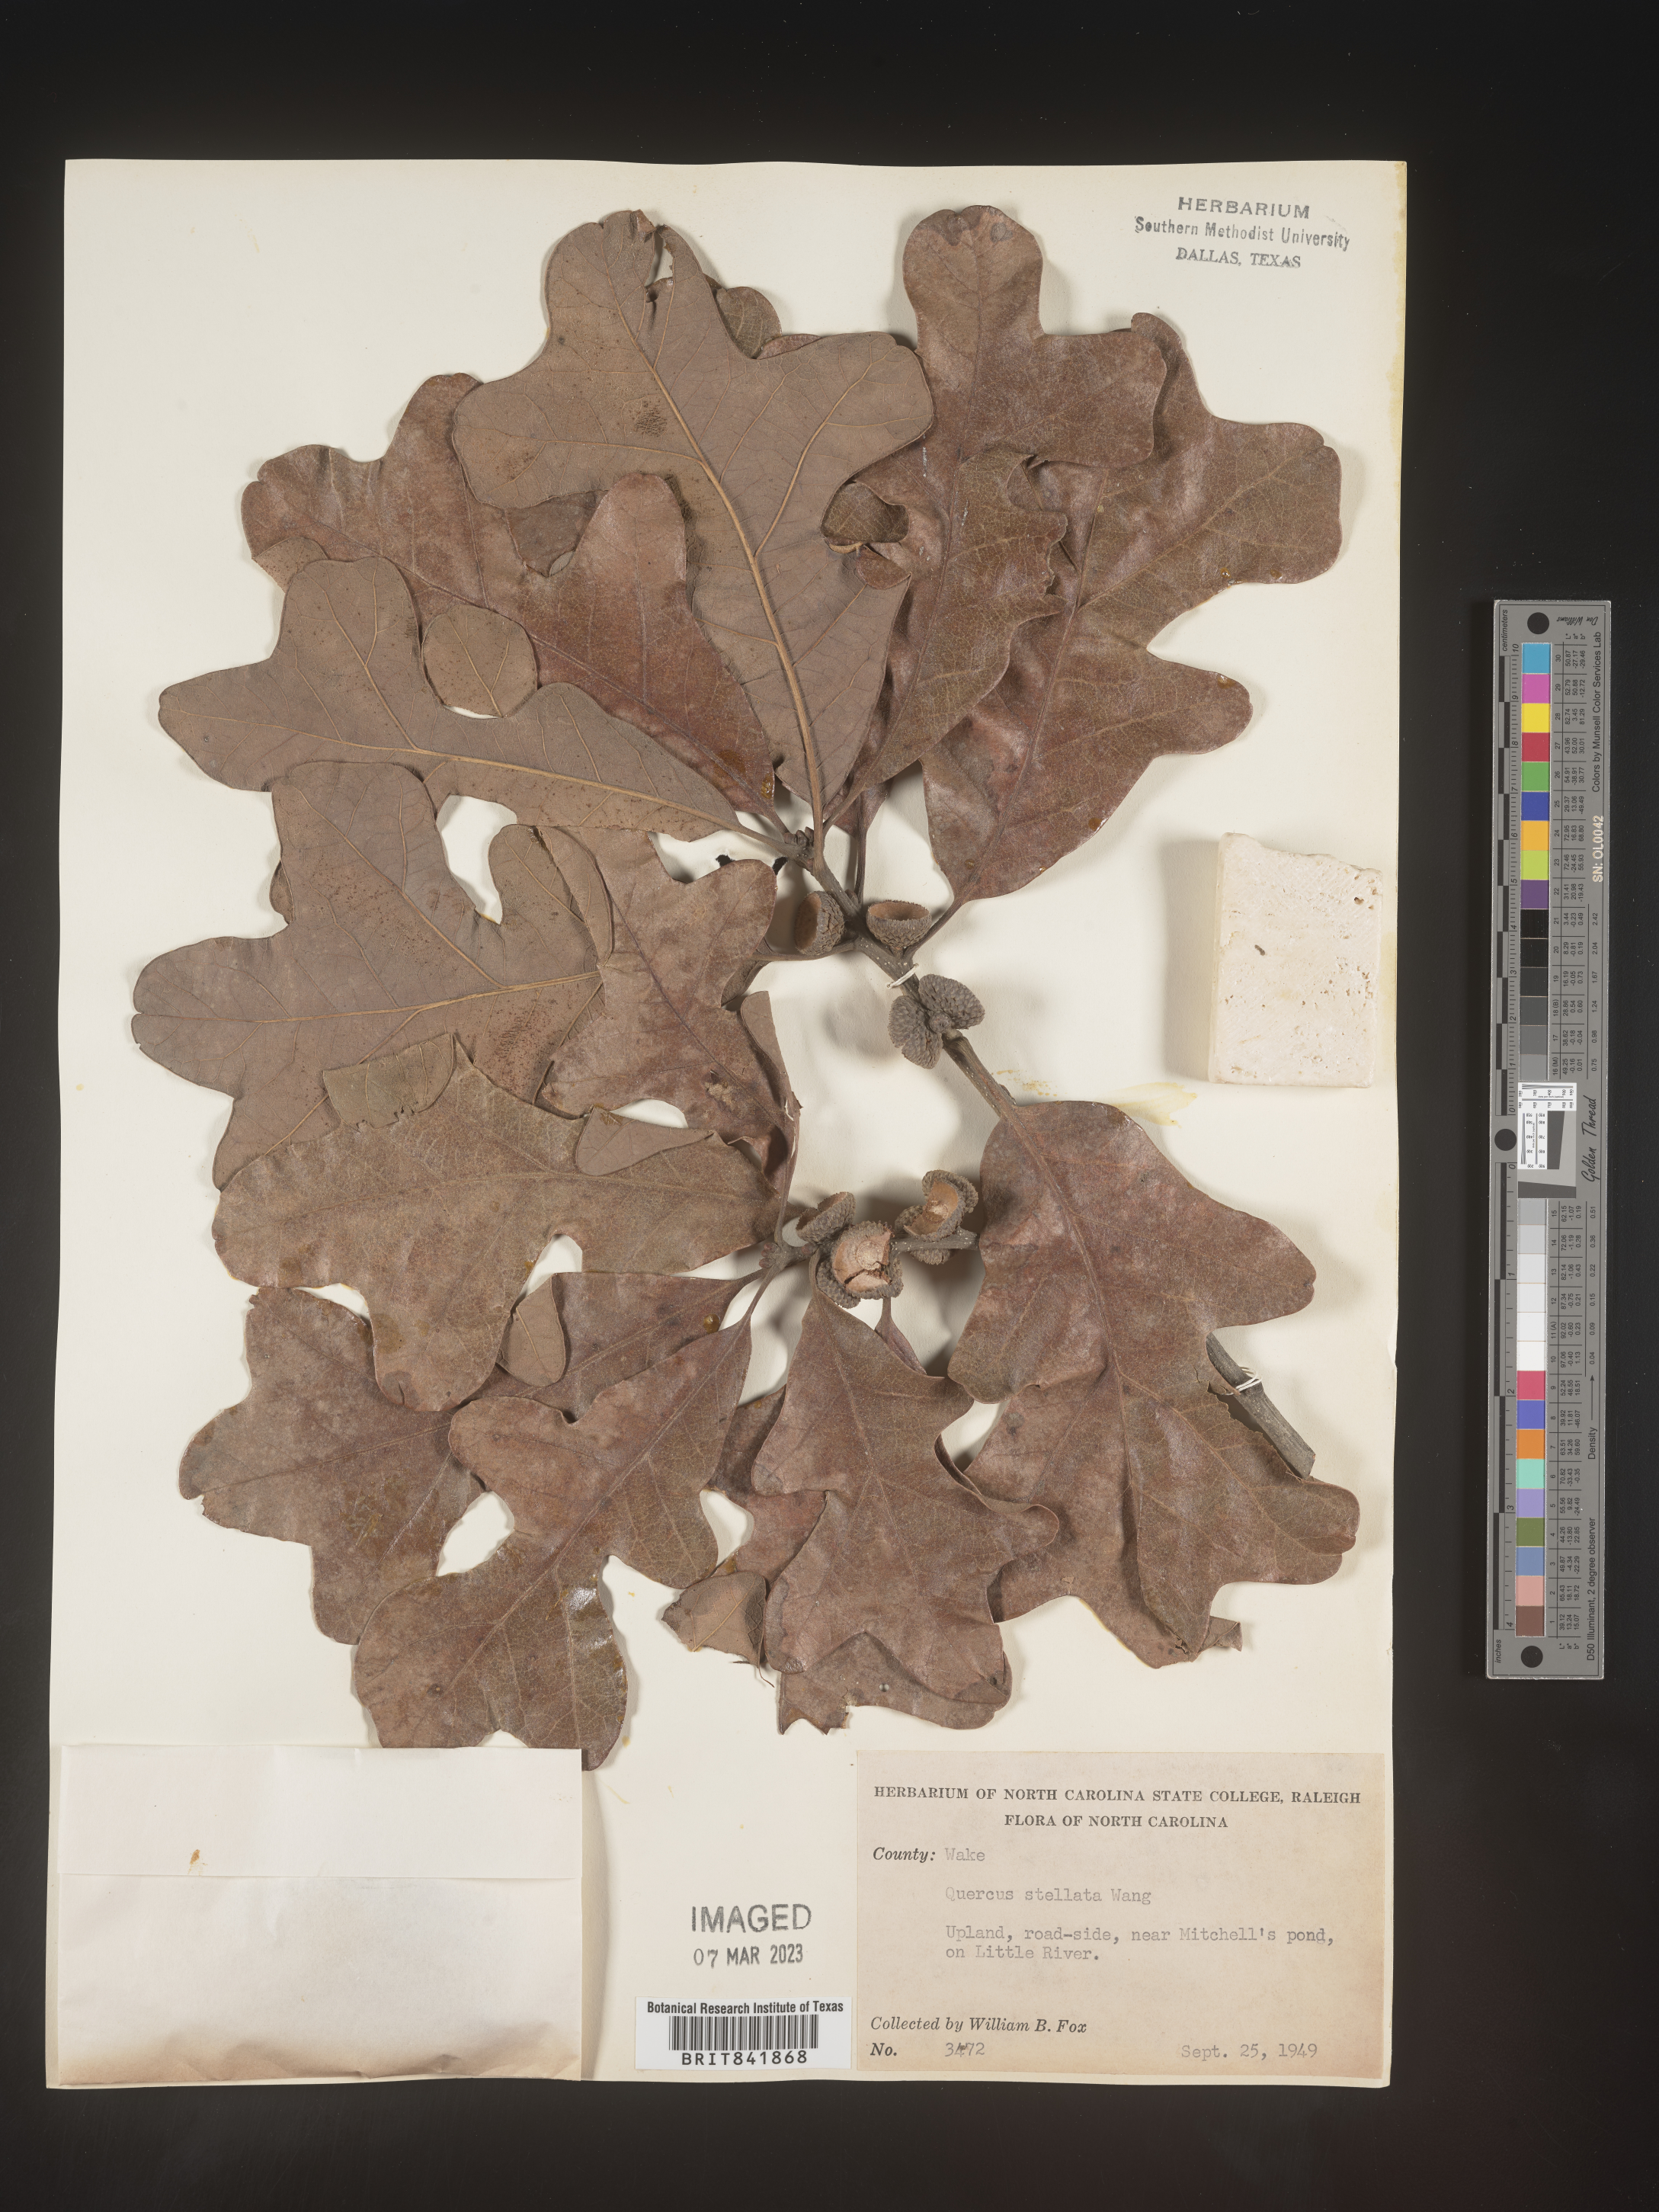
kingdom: Plantae
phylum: Tracheophyta
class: Magnoliopsida
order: Fagales
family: Fagaceae
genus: Quercus
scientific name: Quercus stellata
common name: Post oak
